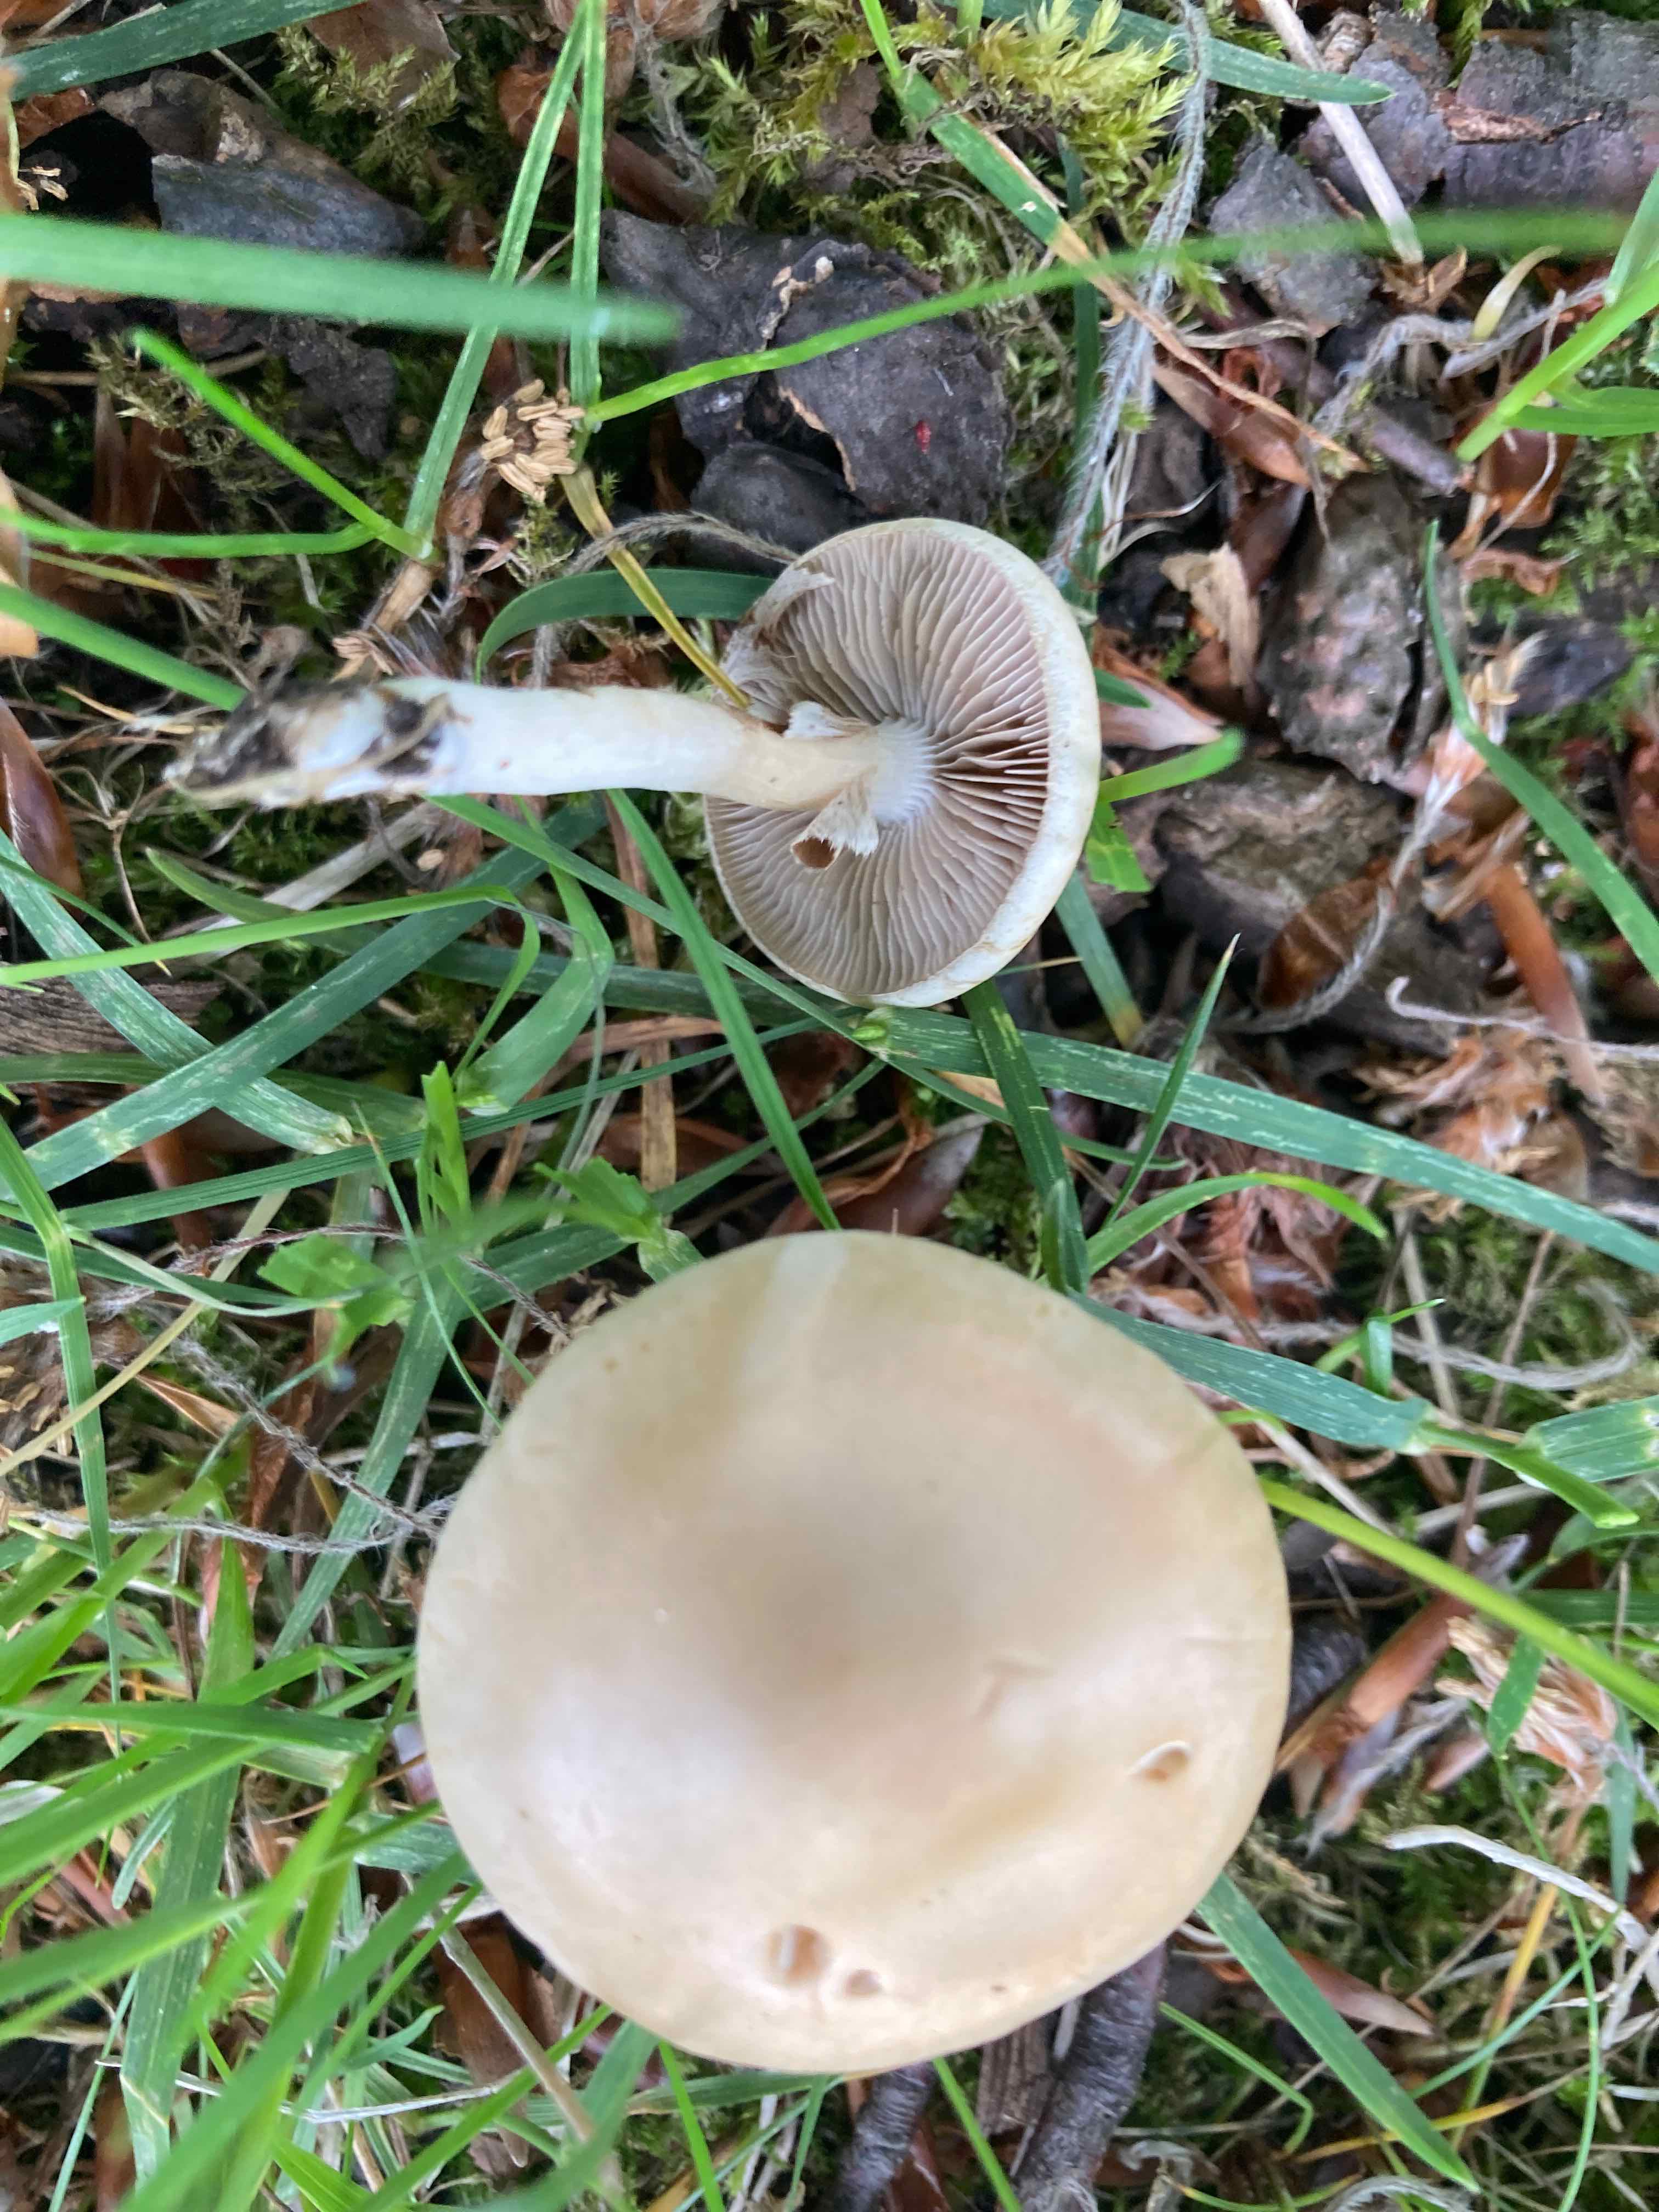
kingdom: Fungi
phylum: Basidiomycota
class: Agaricomycetes
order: Agaricales
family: Strophariaceae
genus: Agrocybe
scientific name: Agrocybe praecox
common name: tidlig agerhat
